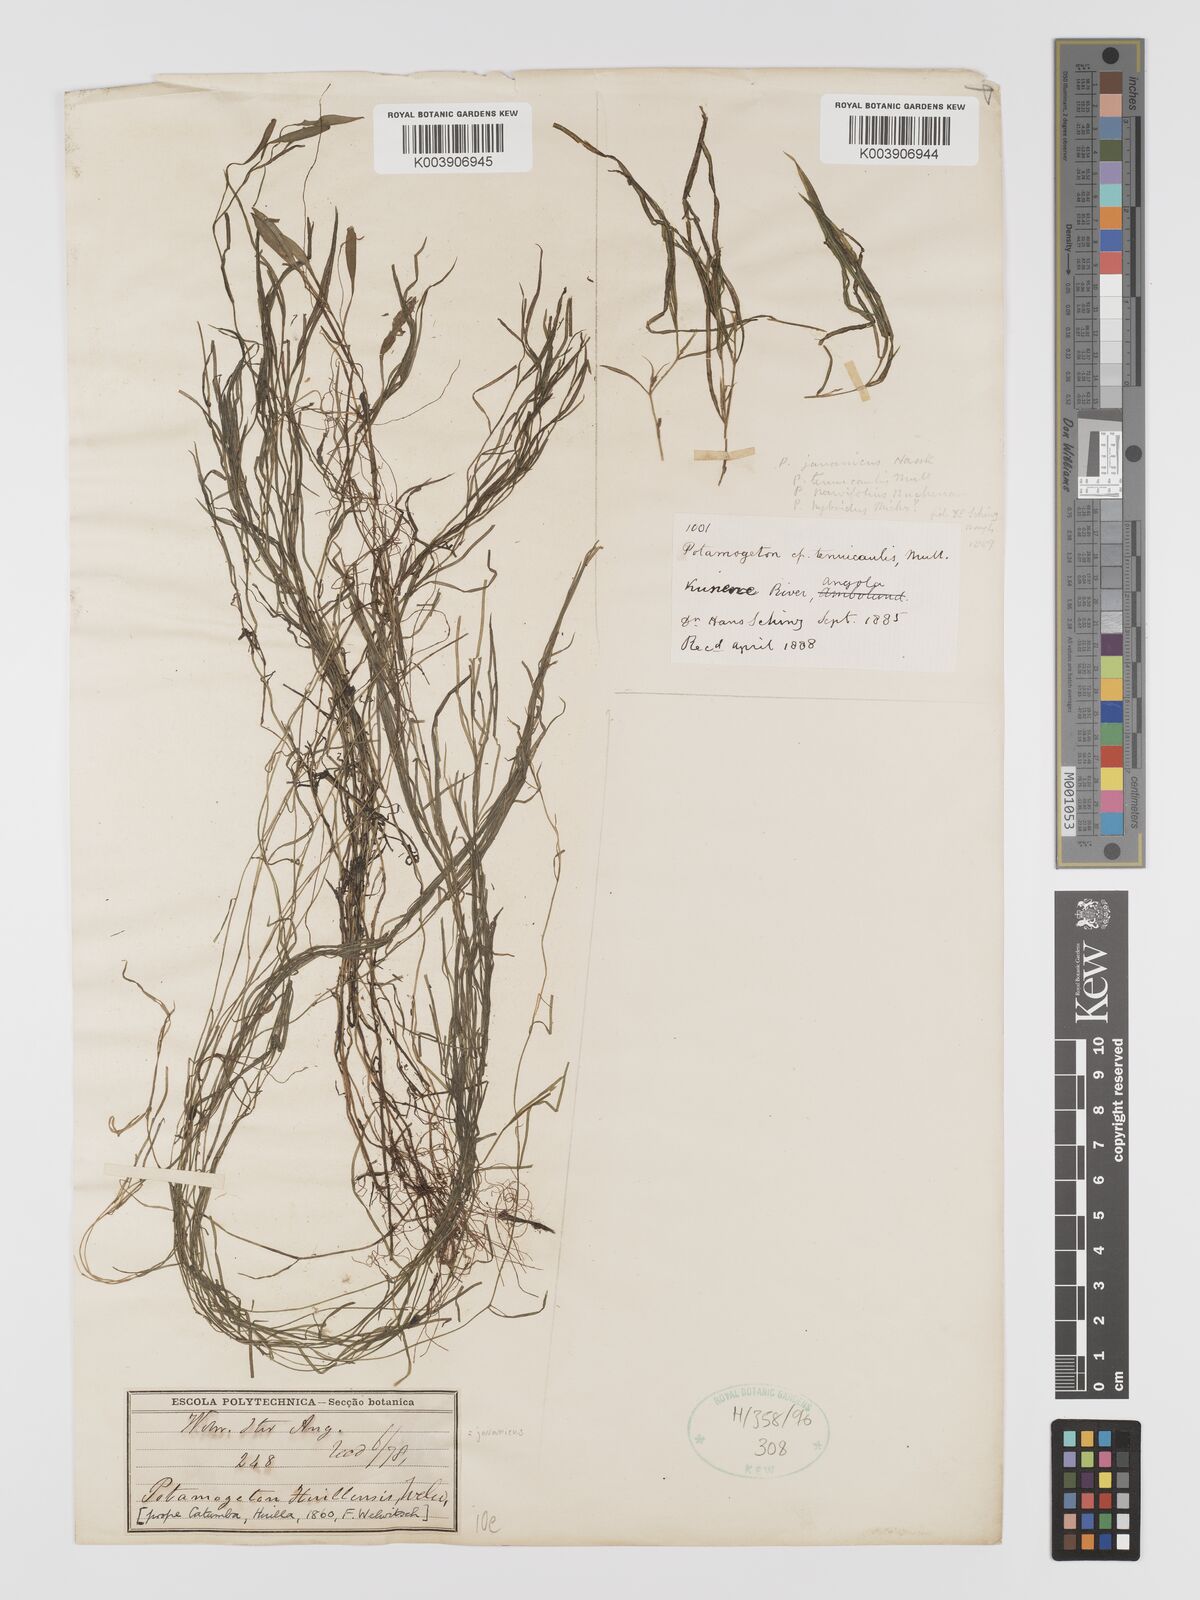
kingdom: Plantae
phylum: Tracheophyta
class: Liliopsida
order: Alismatales
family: Potamogetonaceae
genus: Potamogeton
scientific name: Potamogeton tenuicaulis
